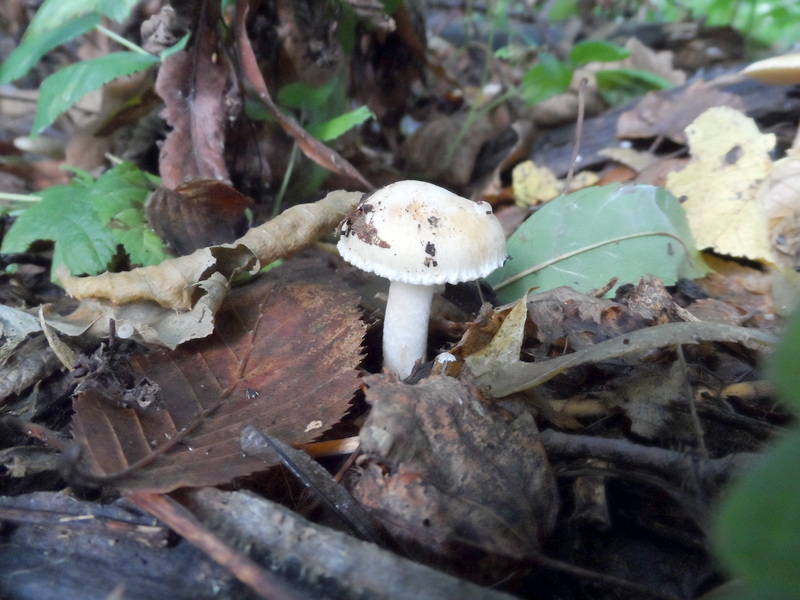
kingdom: Fungi
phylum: Basidiomycota
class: Agaricomycetes
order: Agaricales
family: Inocybaceae
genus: Inocybe
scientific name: Inocybe fraudans
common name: Pear fibrecap
